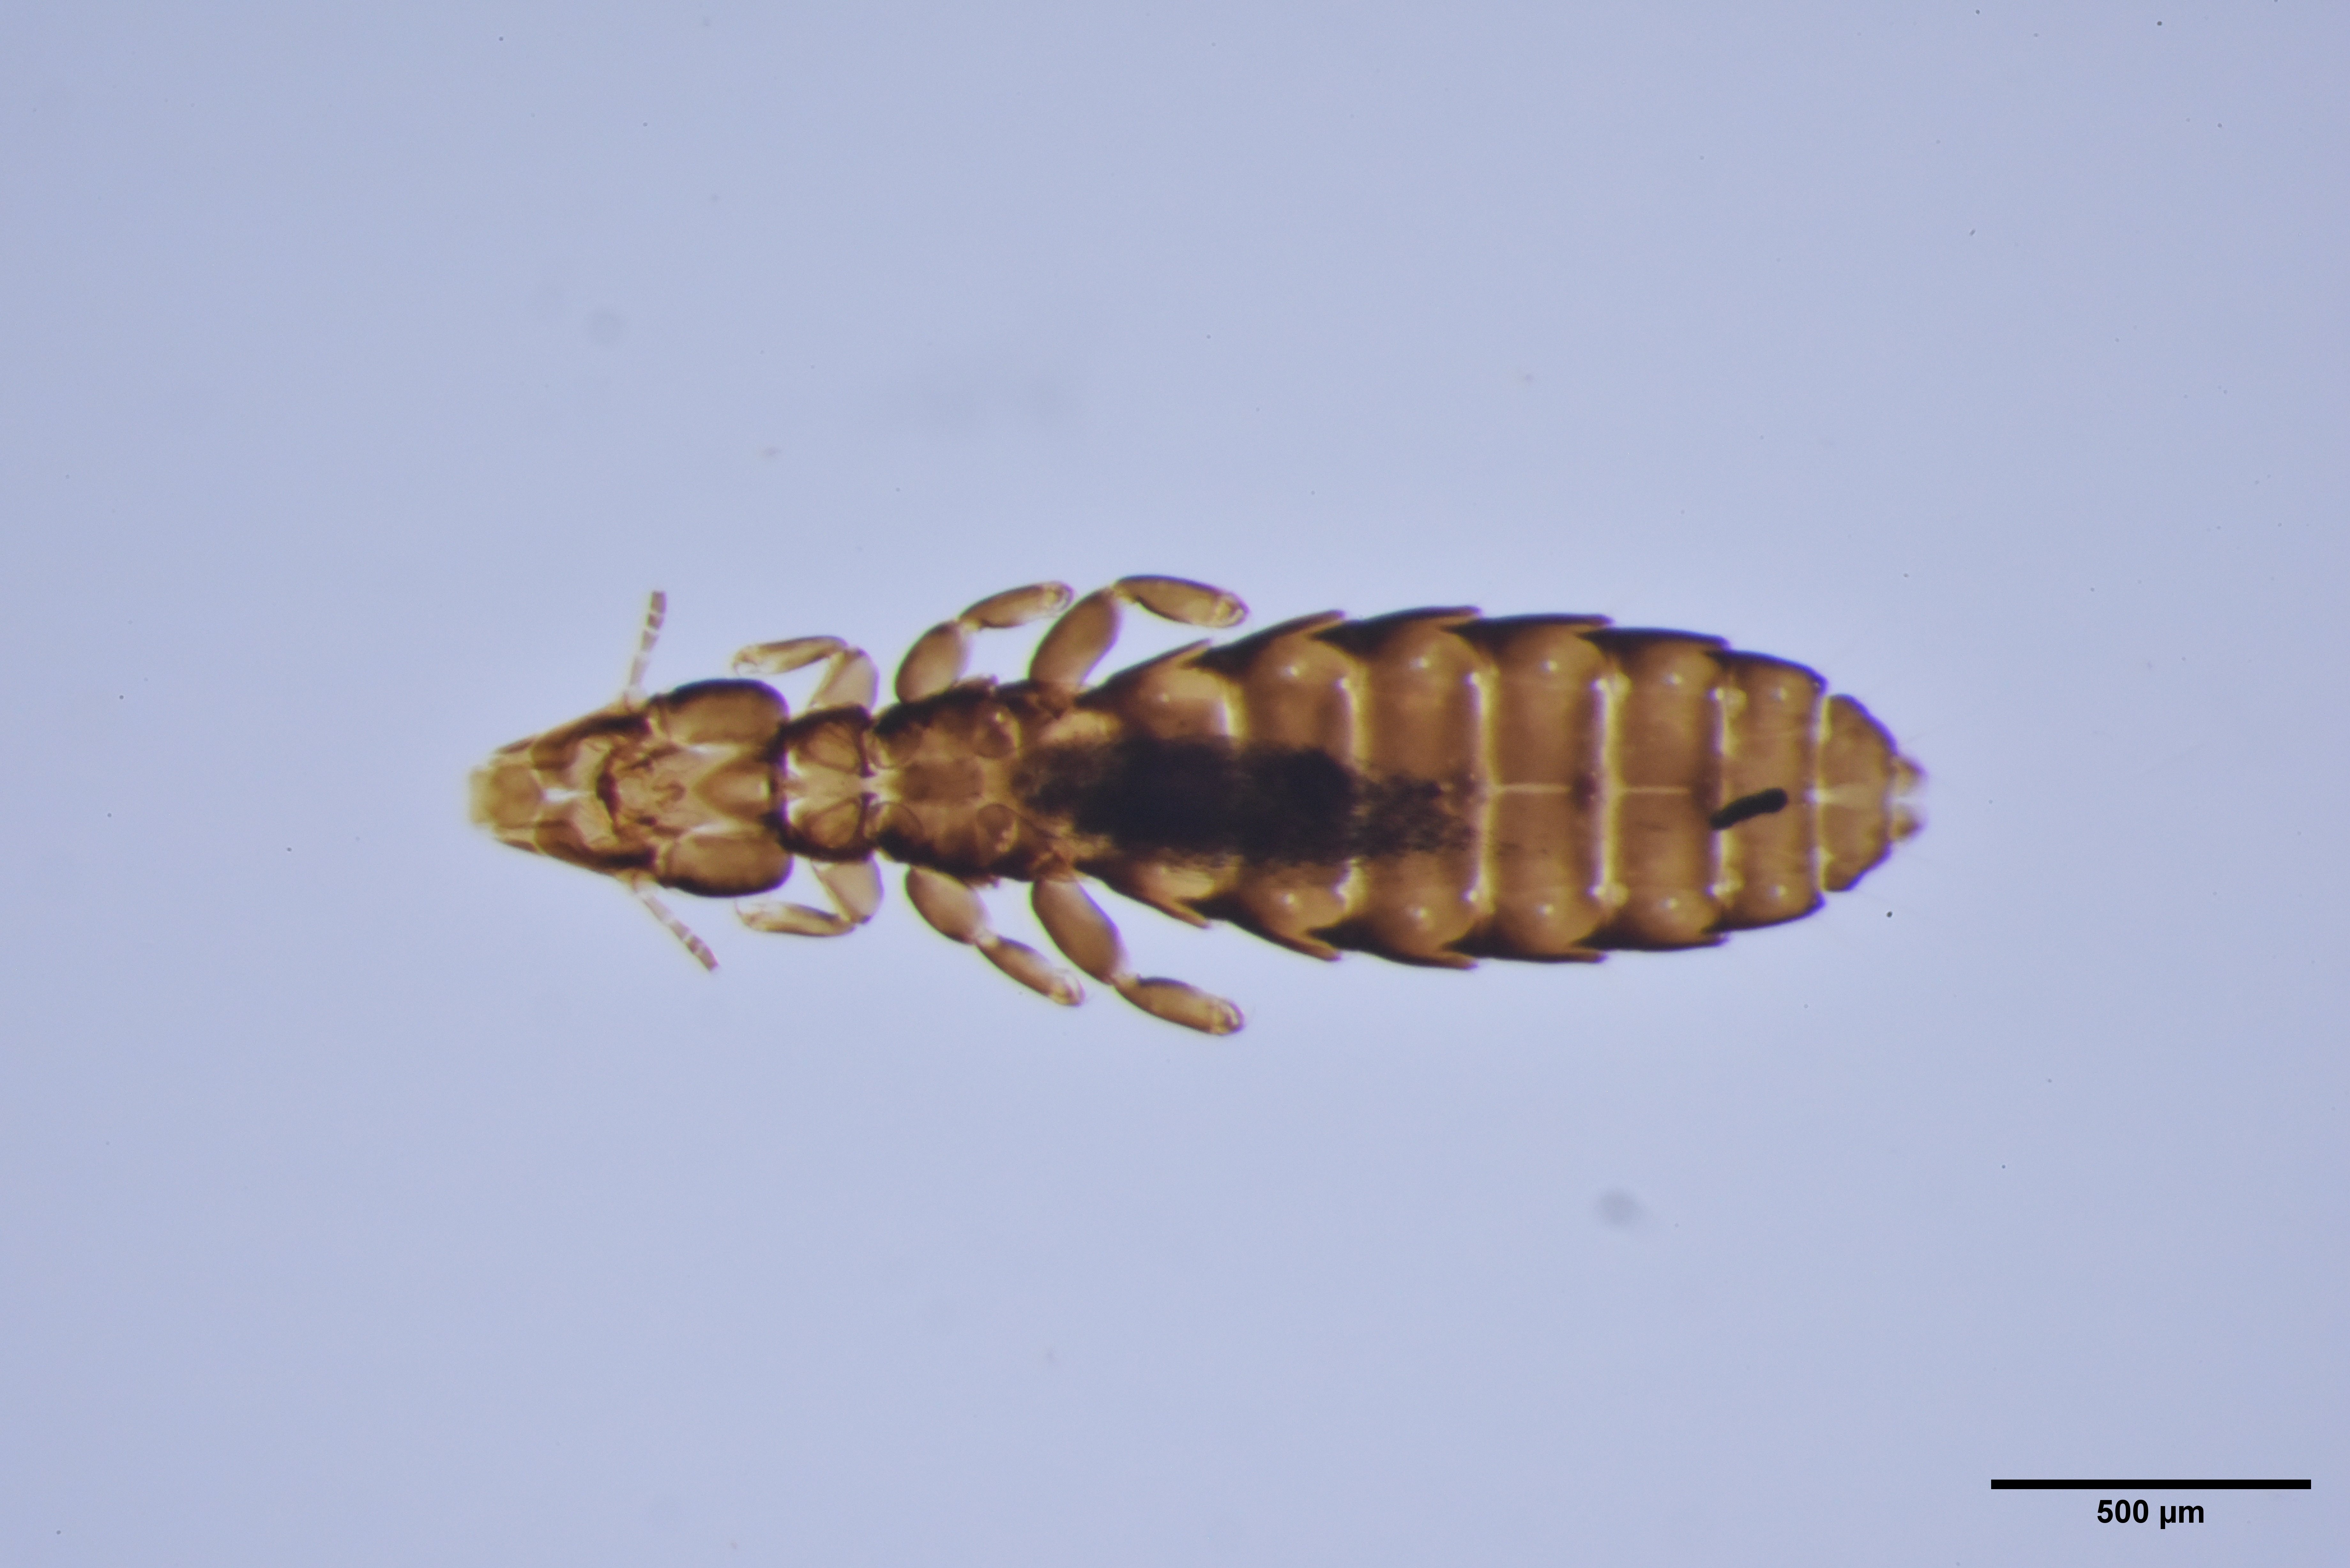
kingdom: Animalia
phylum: Arthropoda
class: Insecta
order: Psocodea
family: Philopteridae
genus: Quadraceps
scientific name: Quadraceps similis
